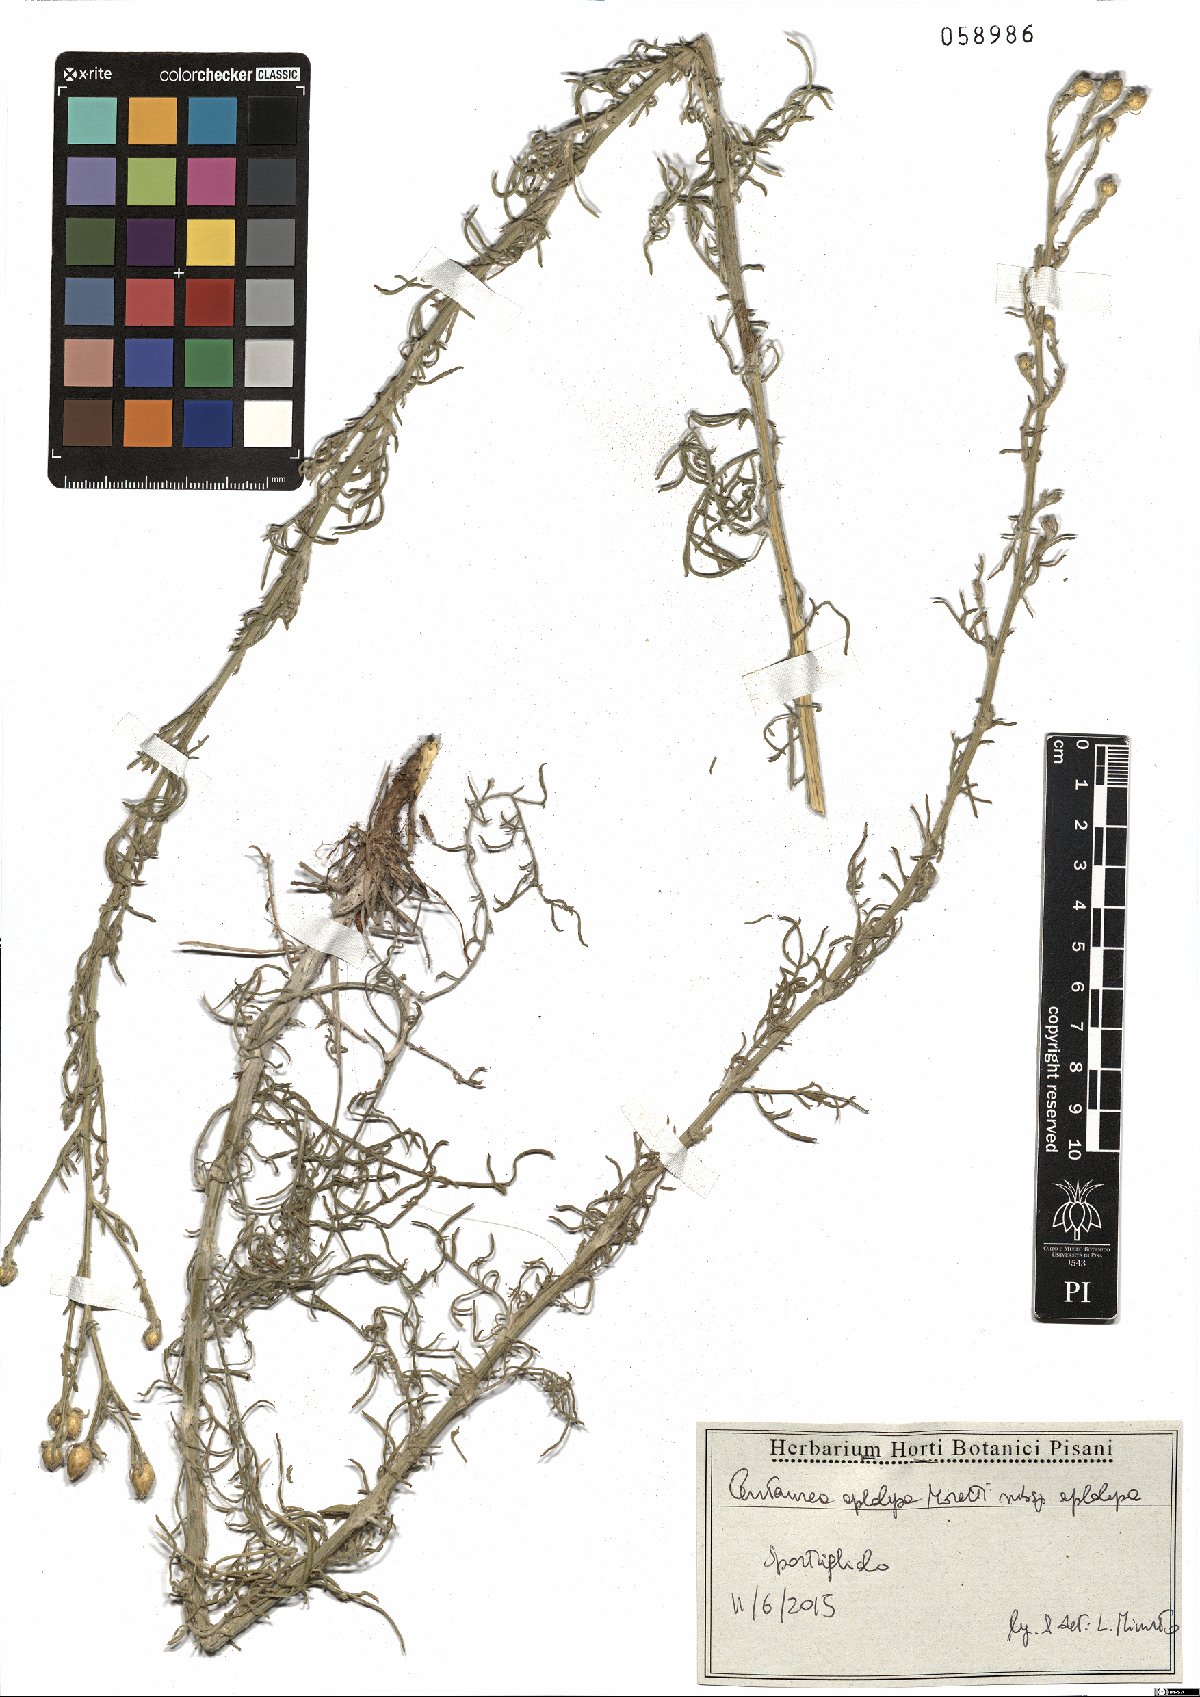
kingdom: Plantae
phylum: Tracheophyta
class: Magnoliopsida
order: Asterales
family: Asteraceae
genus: Centaurea
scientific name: Centaurea aplolepa
